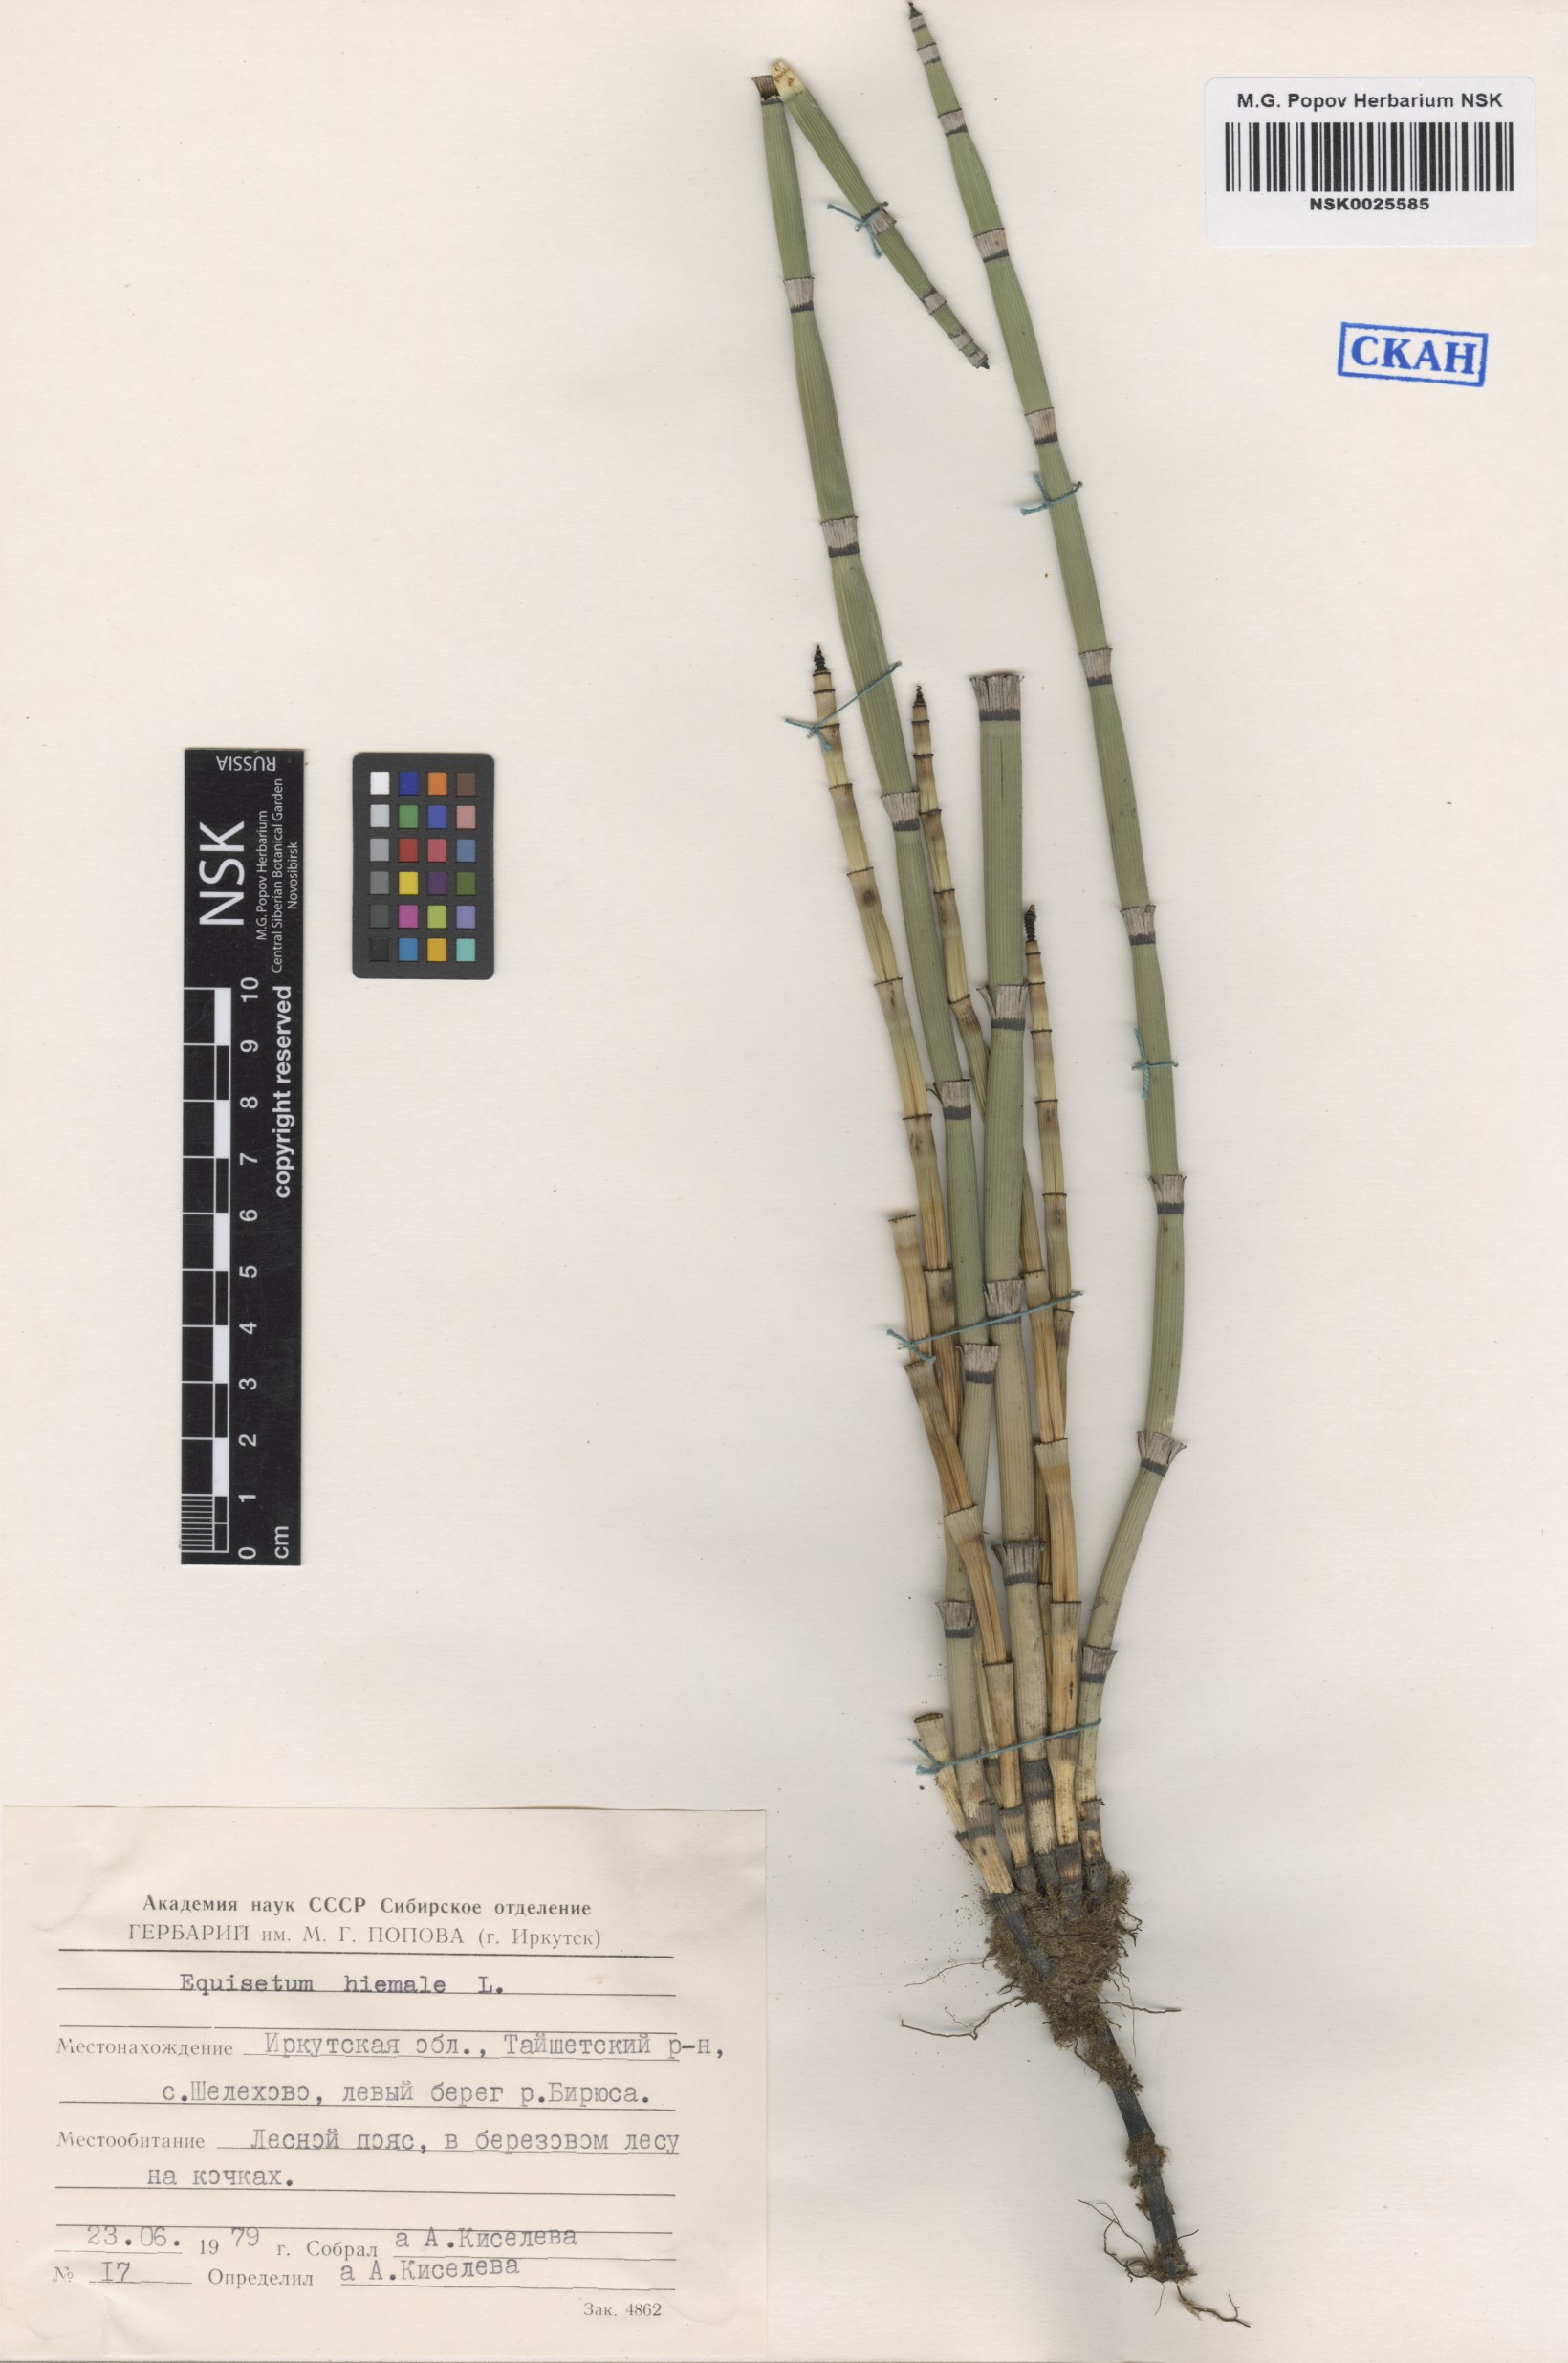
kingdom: Plantae
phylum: Tracheophyta
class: Polypodiopsida
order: Equisetales
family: Equisetaceae
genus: Equisetum
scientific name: Equisetum hyemale
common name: Rough horsetail
